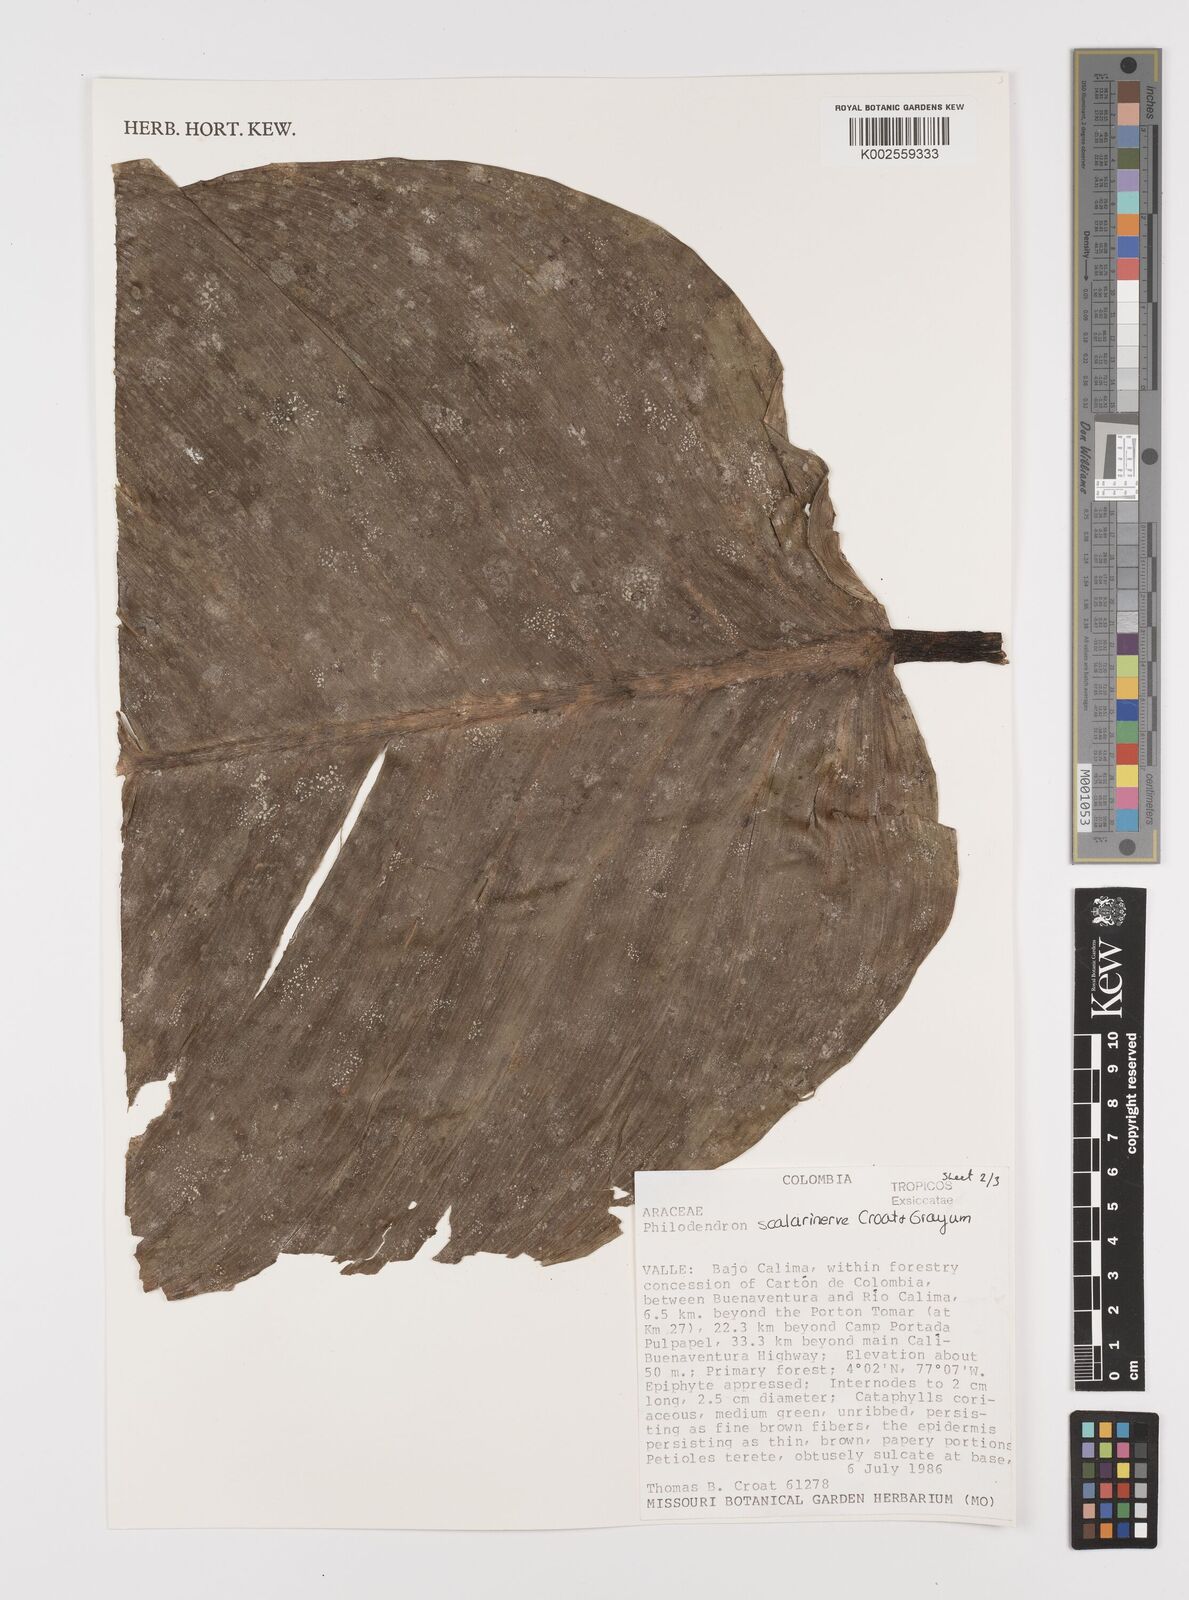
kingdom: Plantae
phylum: Tracheophyta
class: Liliopsida
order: Alismatales
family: Araceae
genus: Philodendron
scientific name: Philodendron scalarinerve
